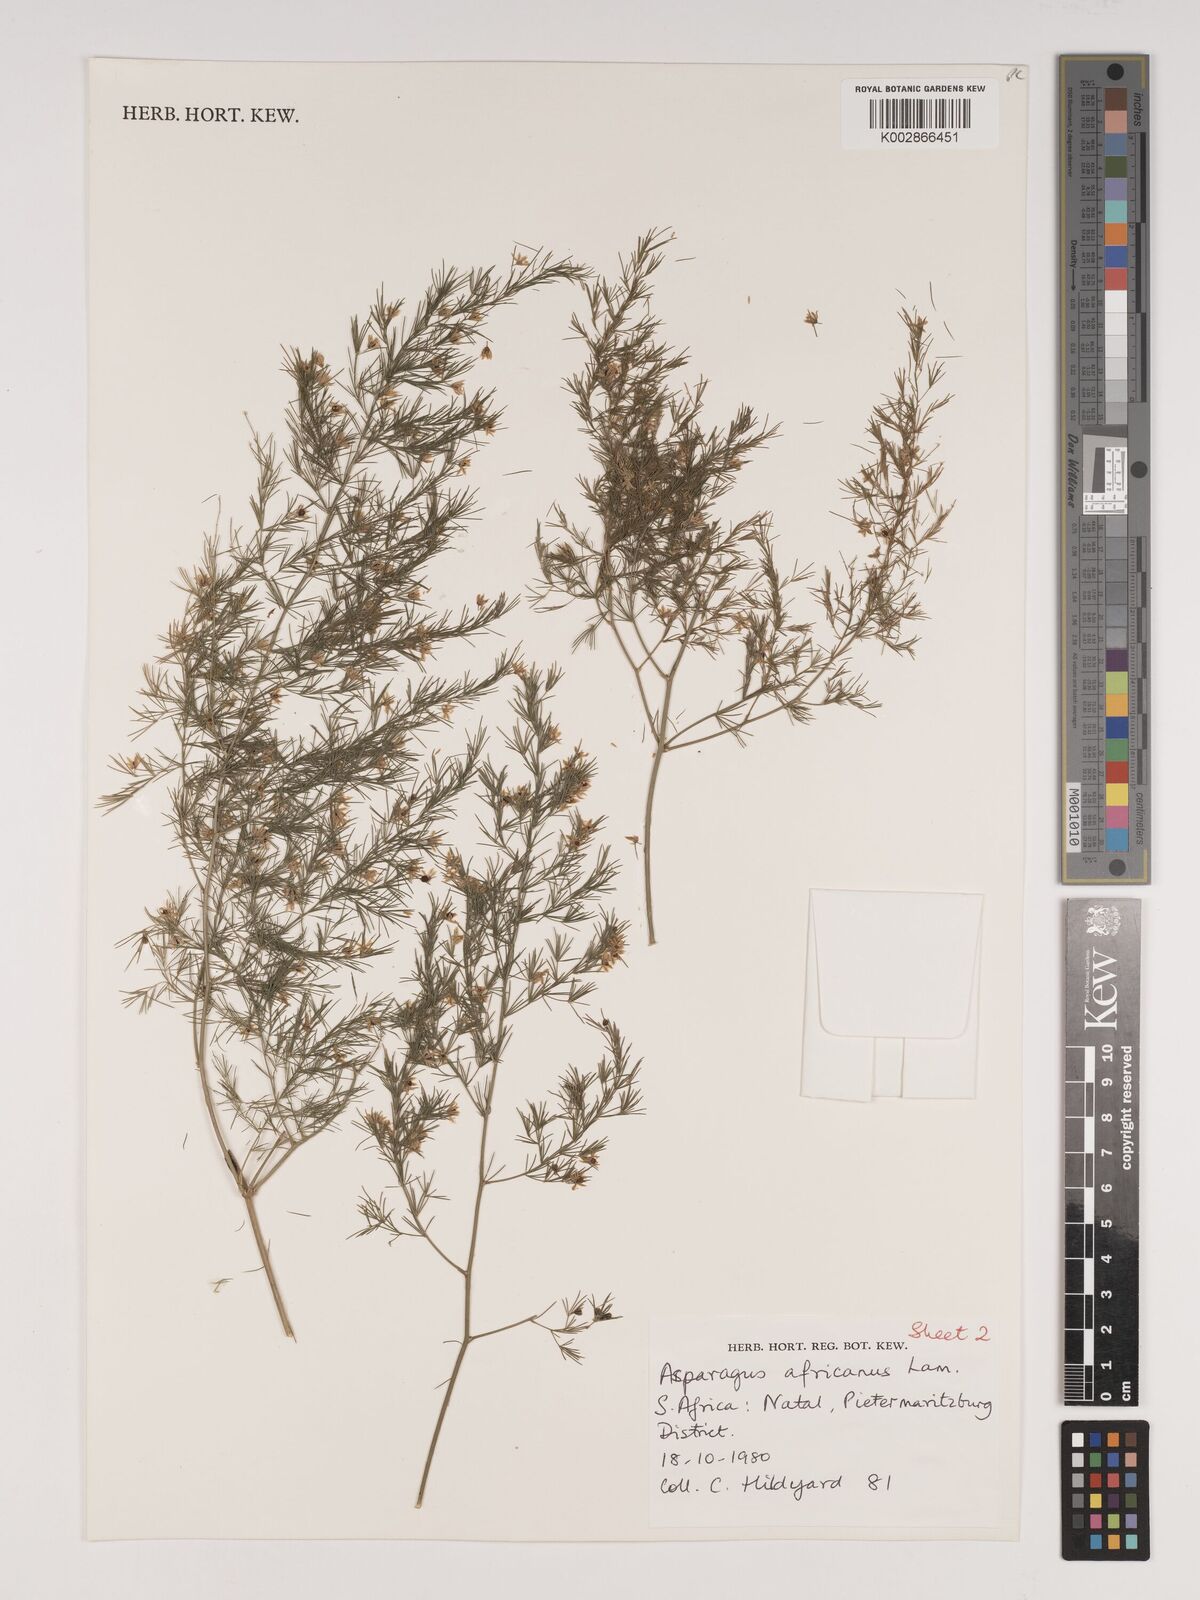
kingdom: Plantae
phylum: Tracheophyta
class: Liliopsida
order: Asparagales
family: Asparagaceae
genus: Asparagus
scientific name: Asparagus africanus
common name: Asparagus-fern
